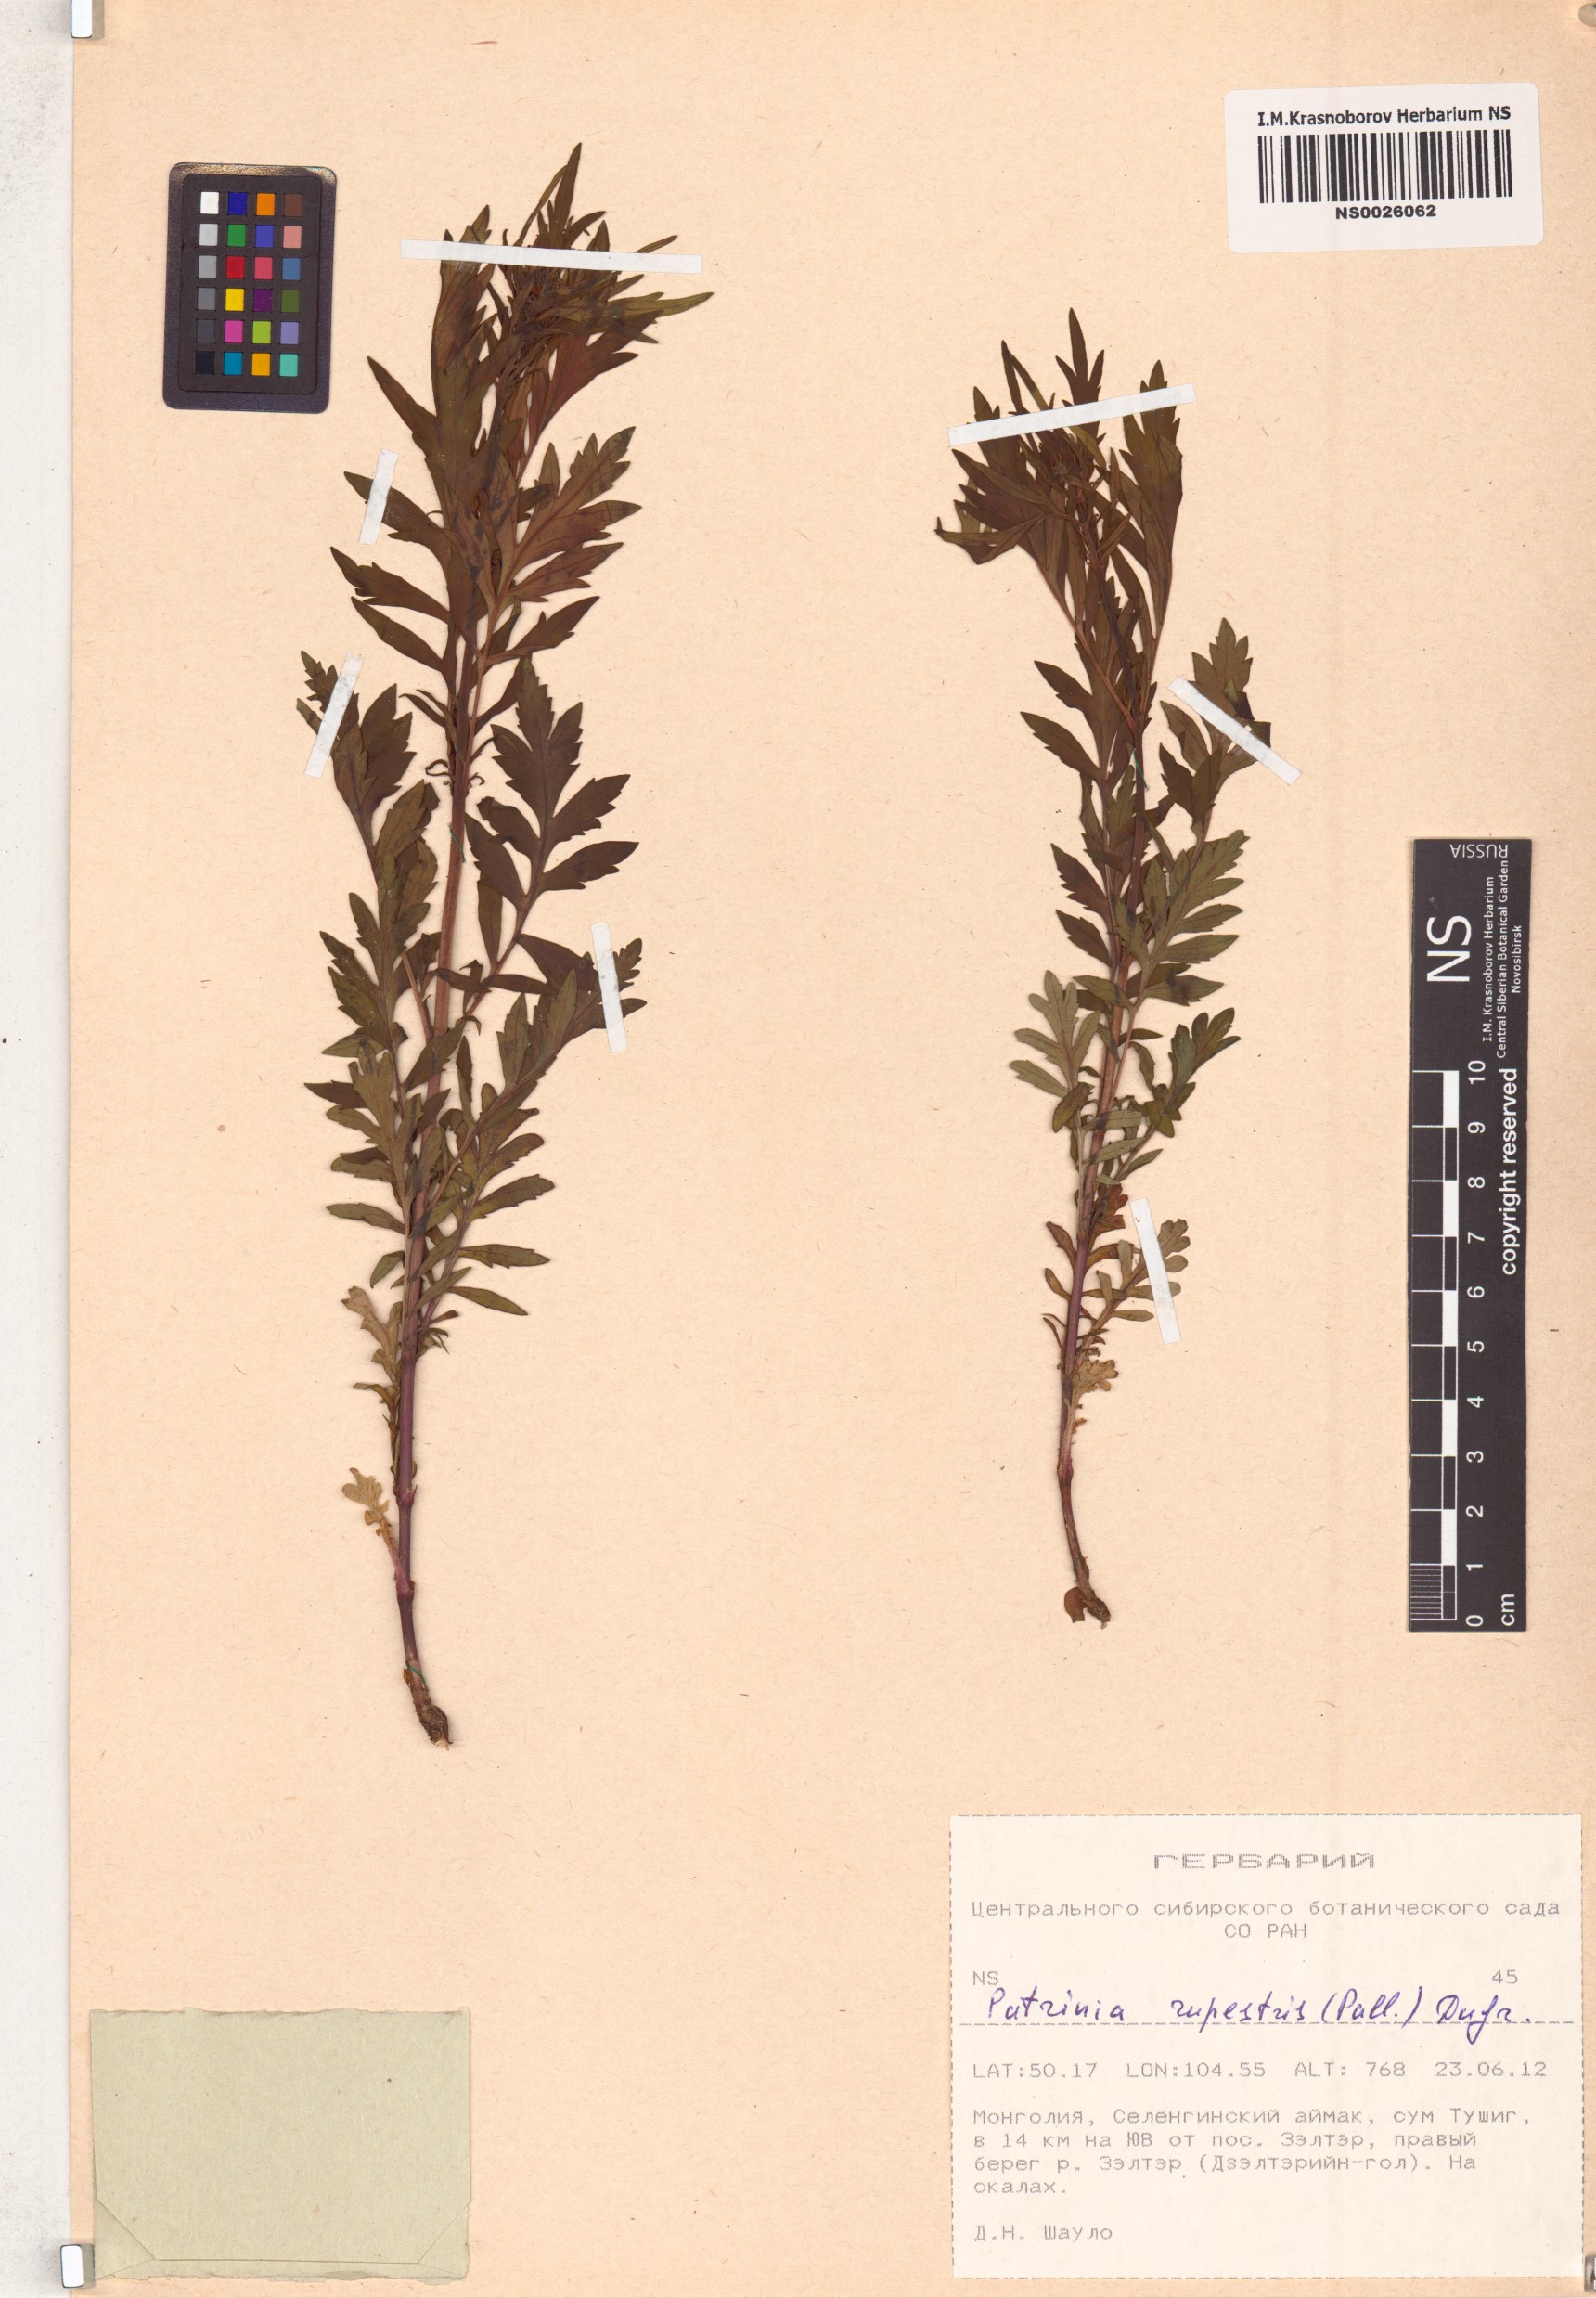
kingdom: Plantae
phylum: Tracheophyta
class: Magnoliopsida
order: Dipsacales
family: Caprifoliaceae
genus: Patrinia
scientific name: Patrinia rupestris
